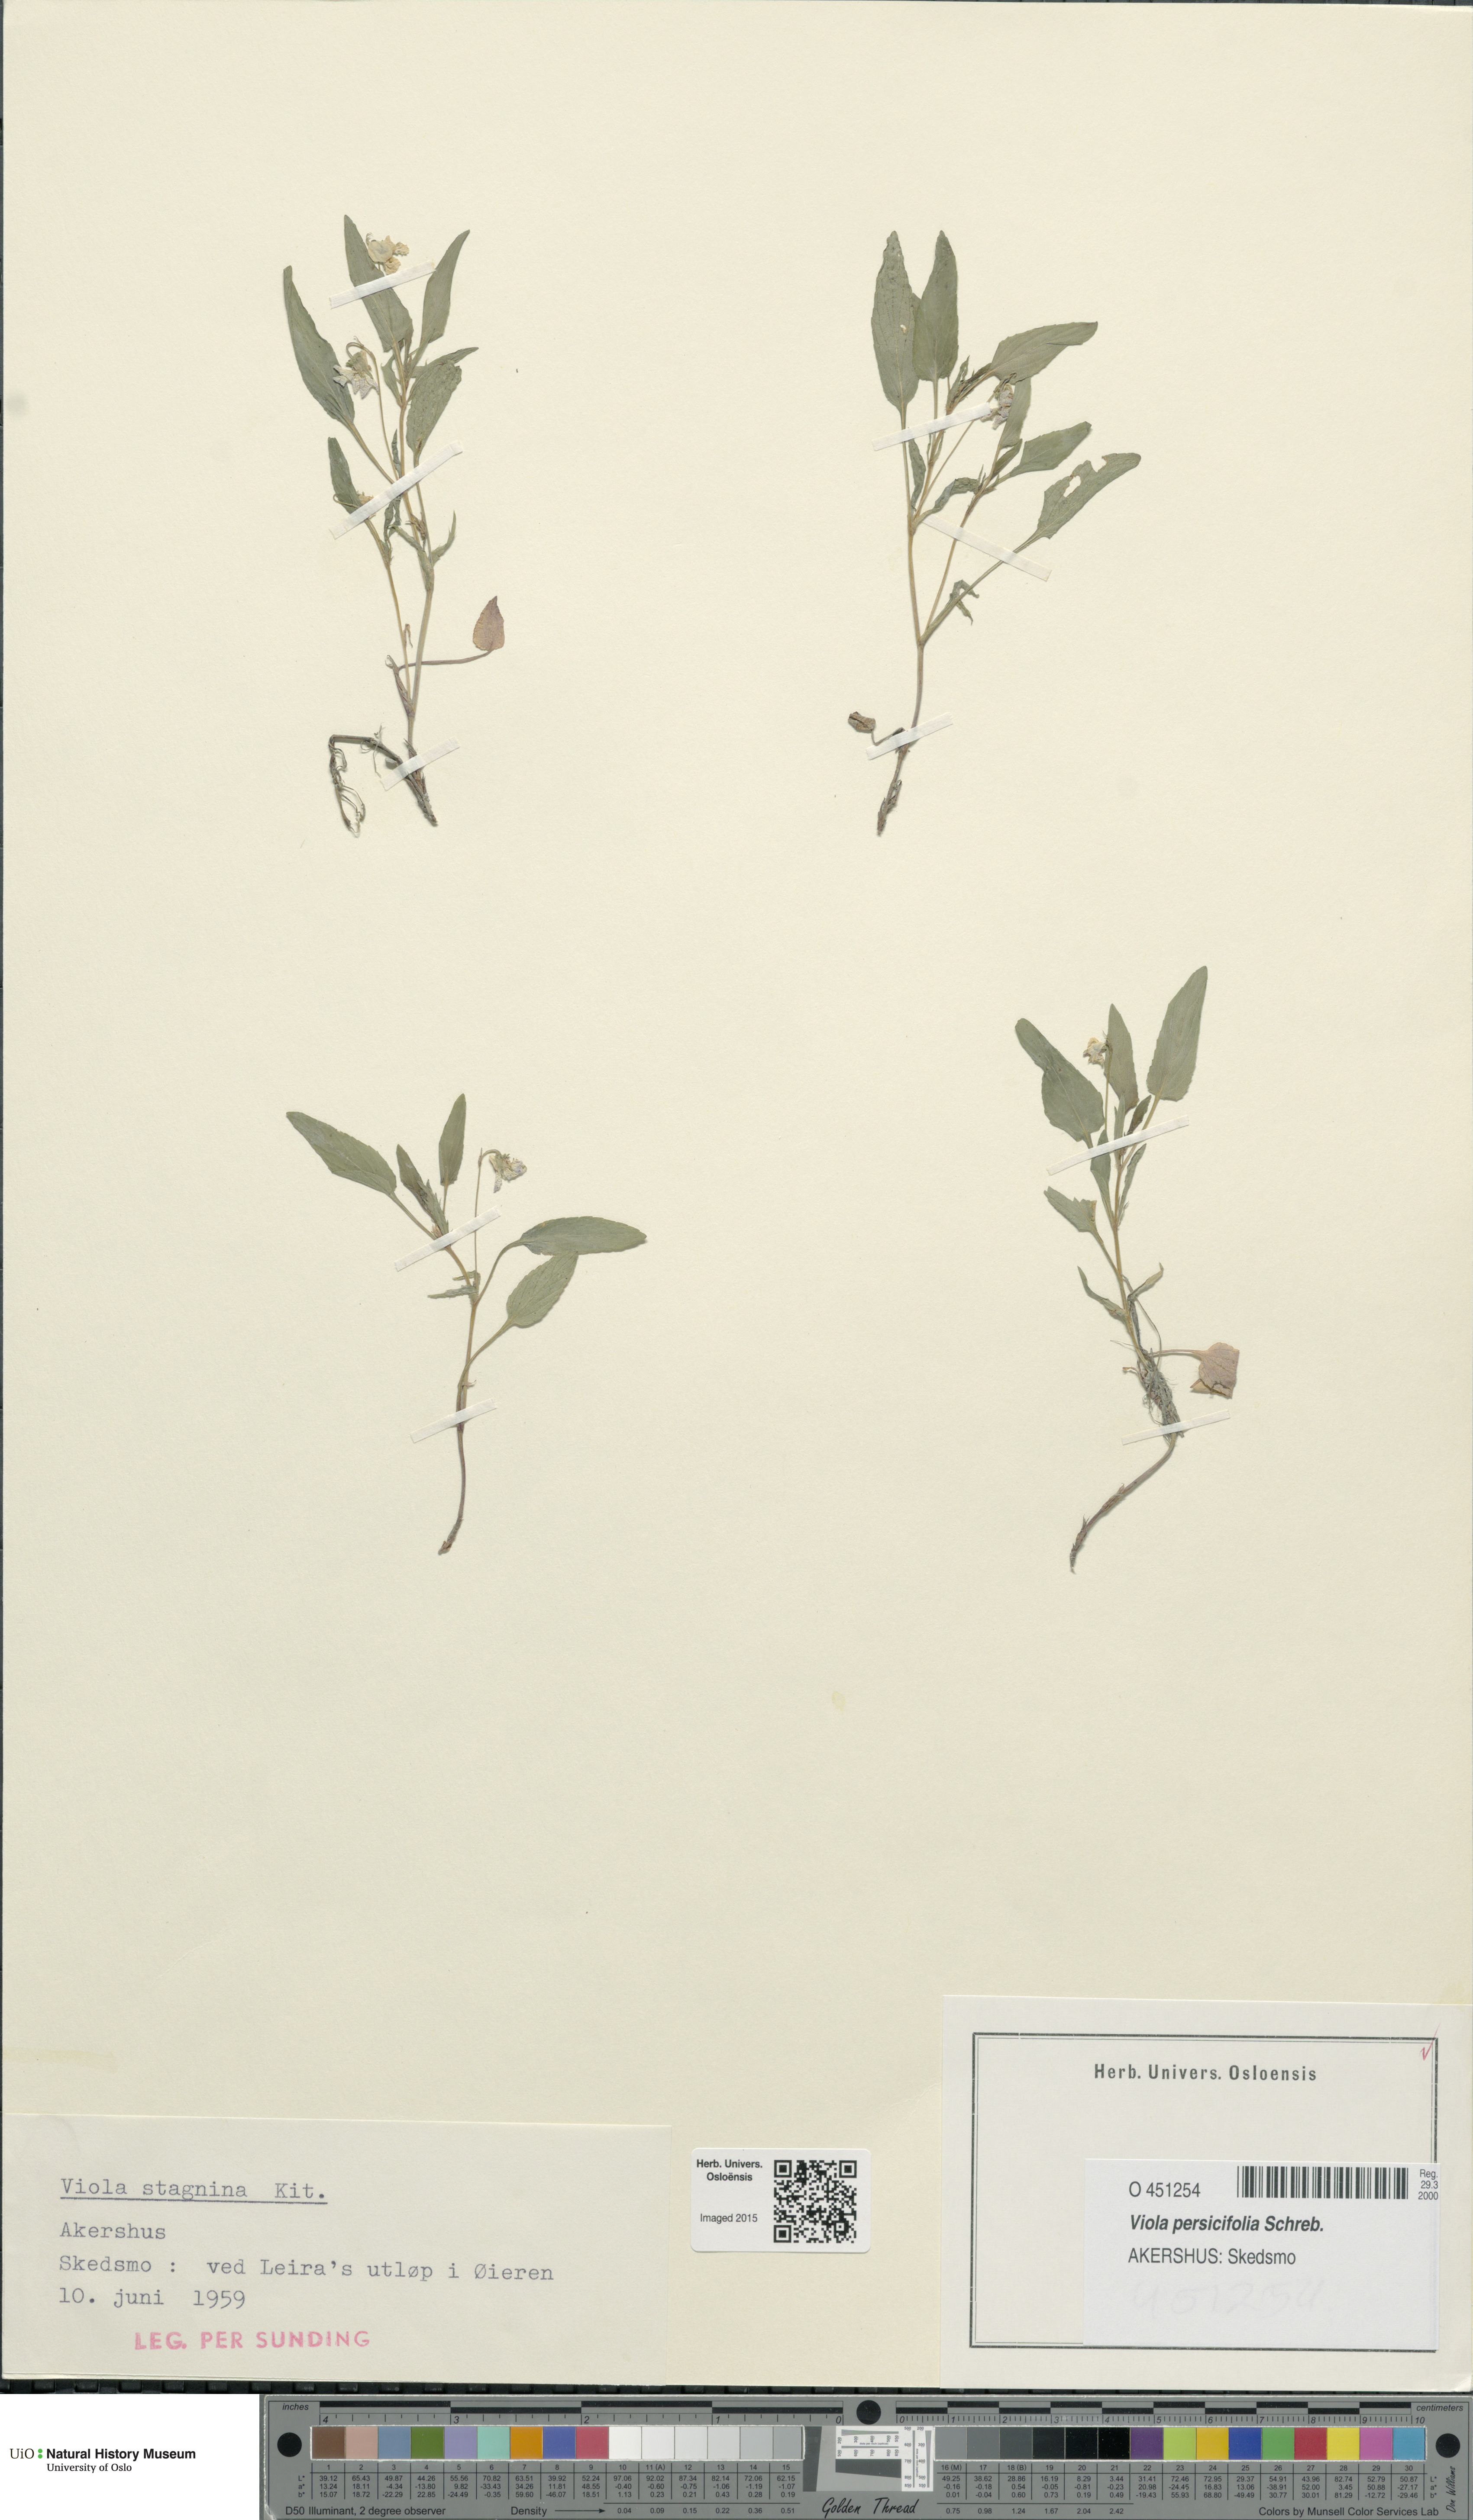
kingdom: Plantae
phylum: Tracheophyta
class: Magnoliopsida
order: Malpighiales
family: Violaceae
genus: Viola
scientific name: Viola stagnina
